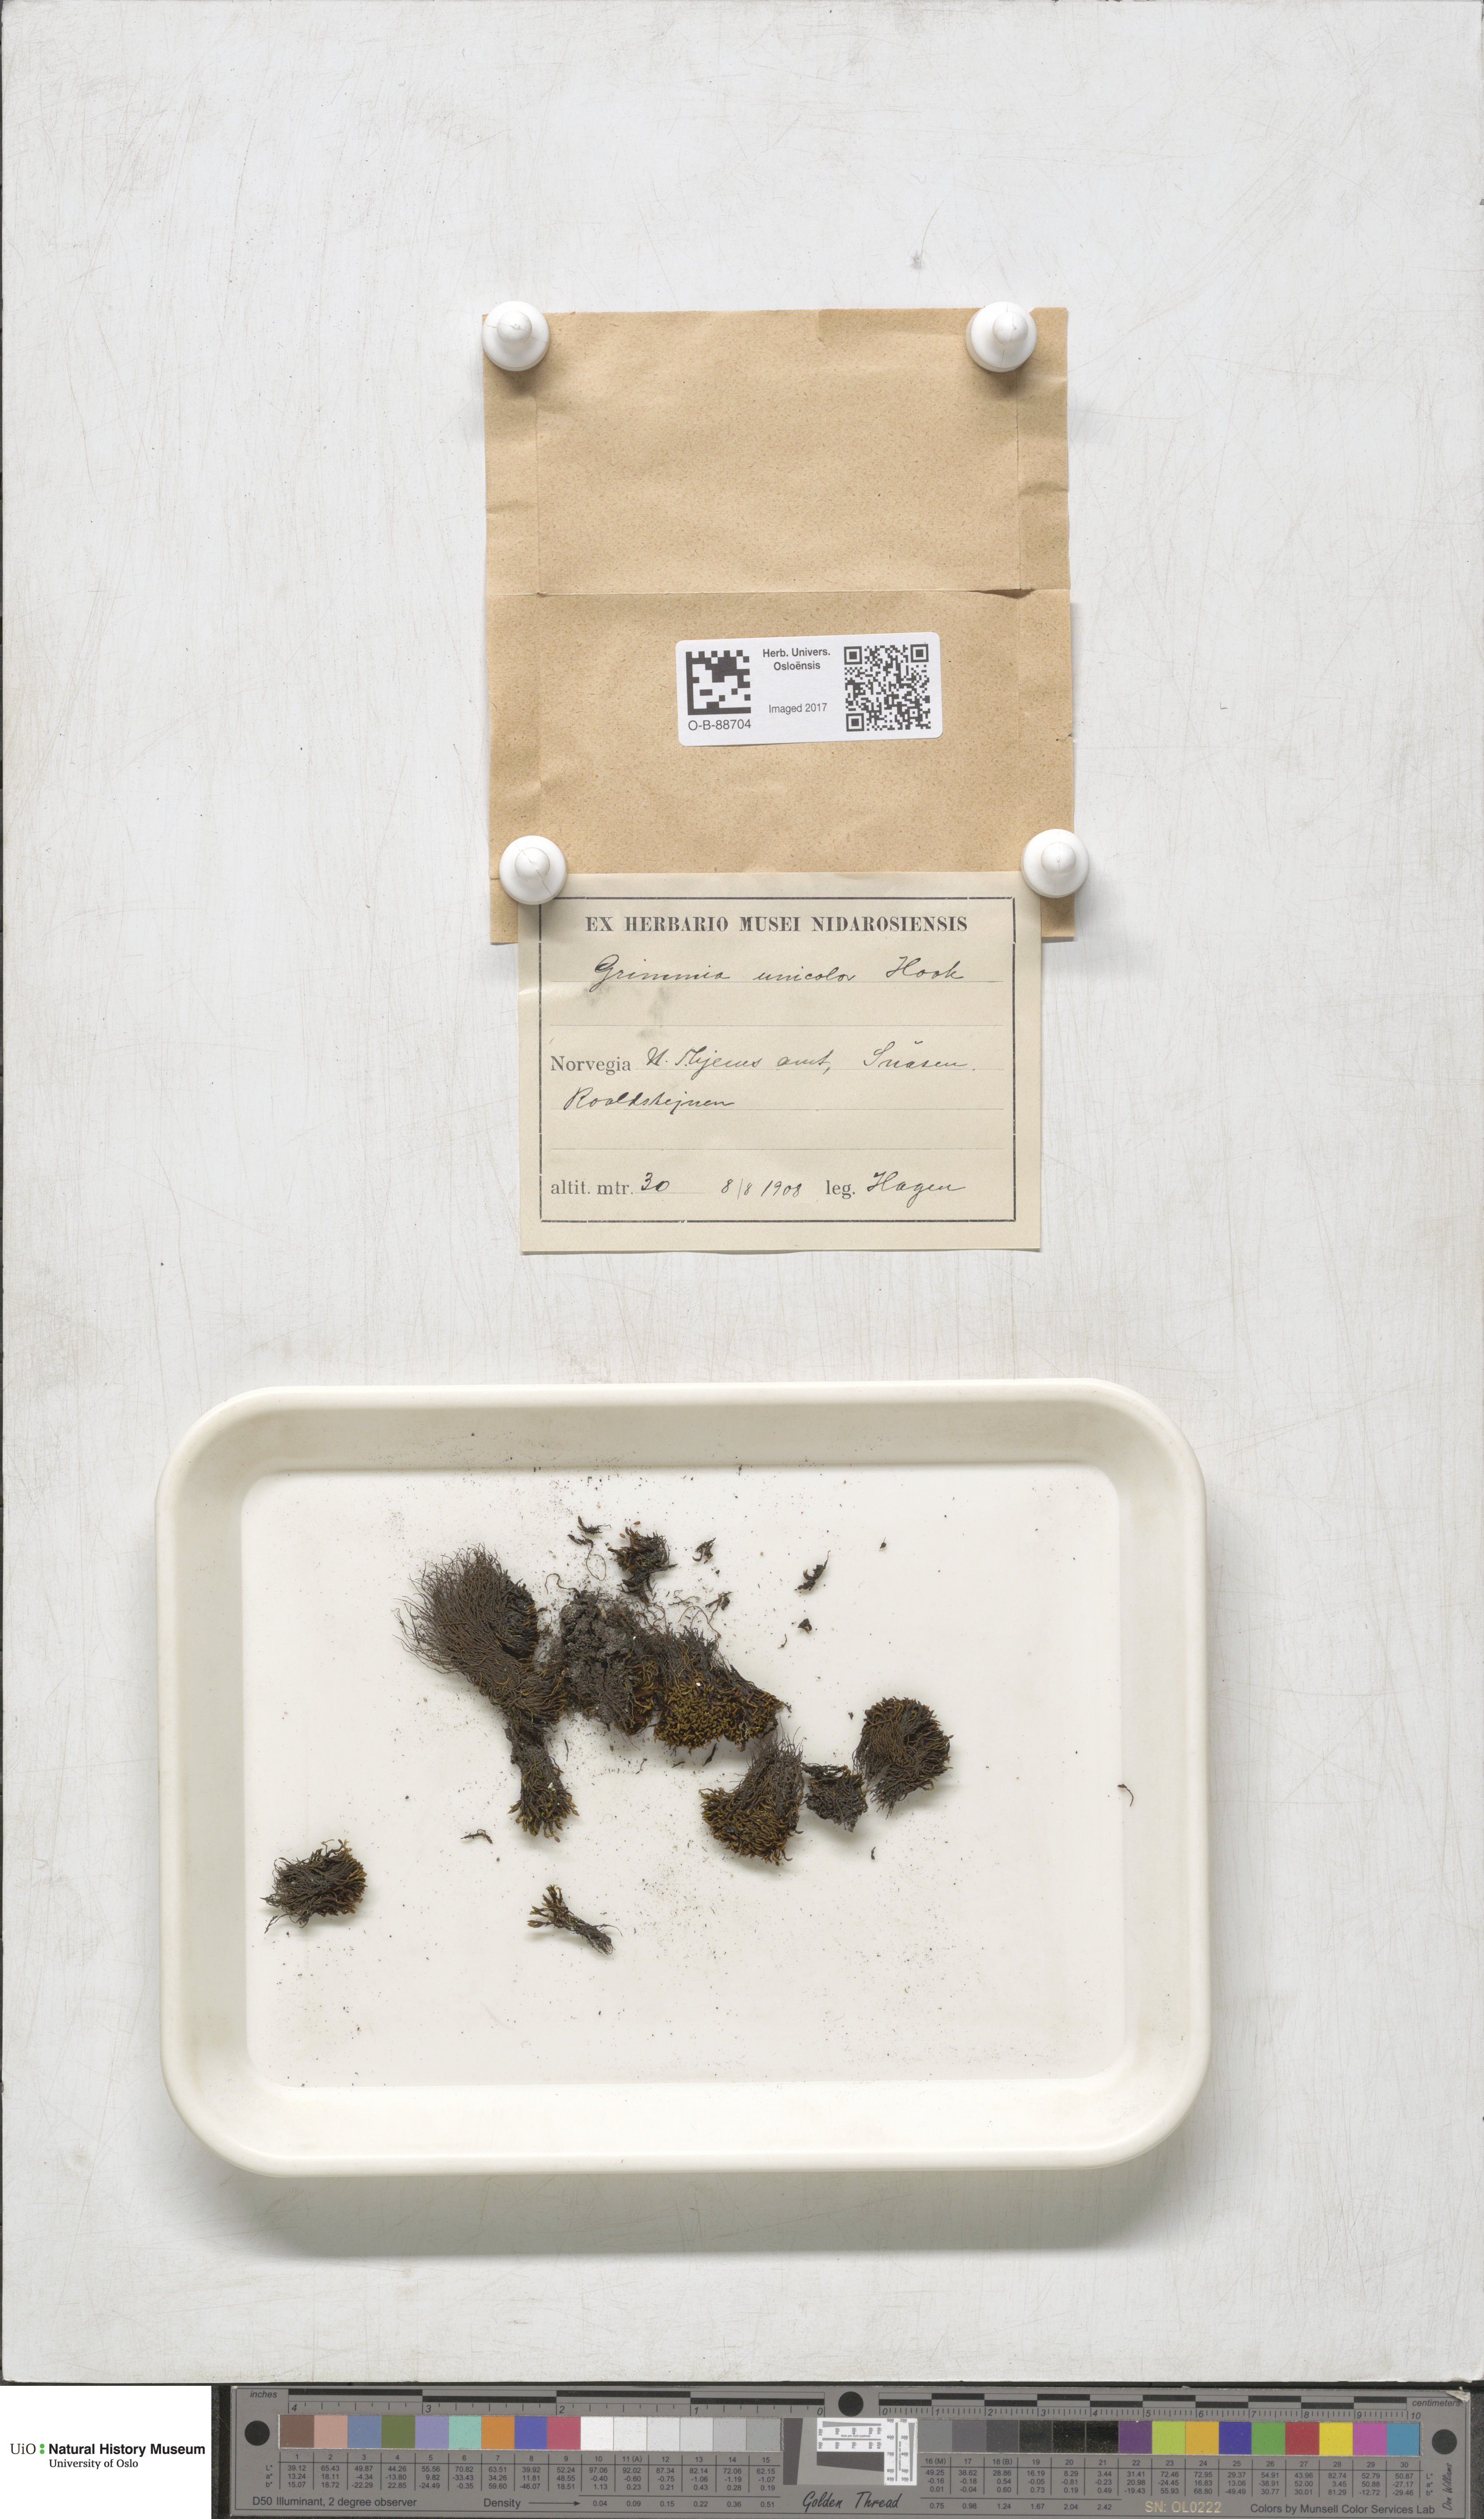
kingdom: Plantae
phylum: Bryophyta
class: Bryopsida
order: Grimmiales
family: Grimmiaceae
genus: Grimmia
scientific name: Grimmia unicolor
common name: Dingy grimmia
